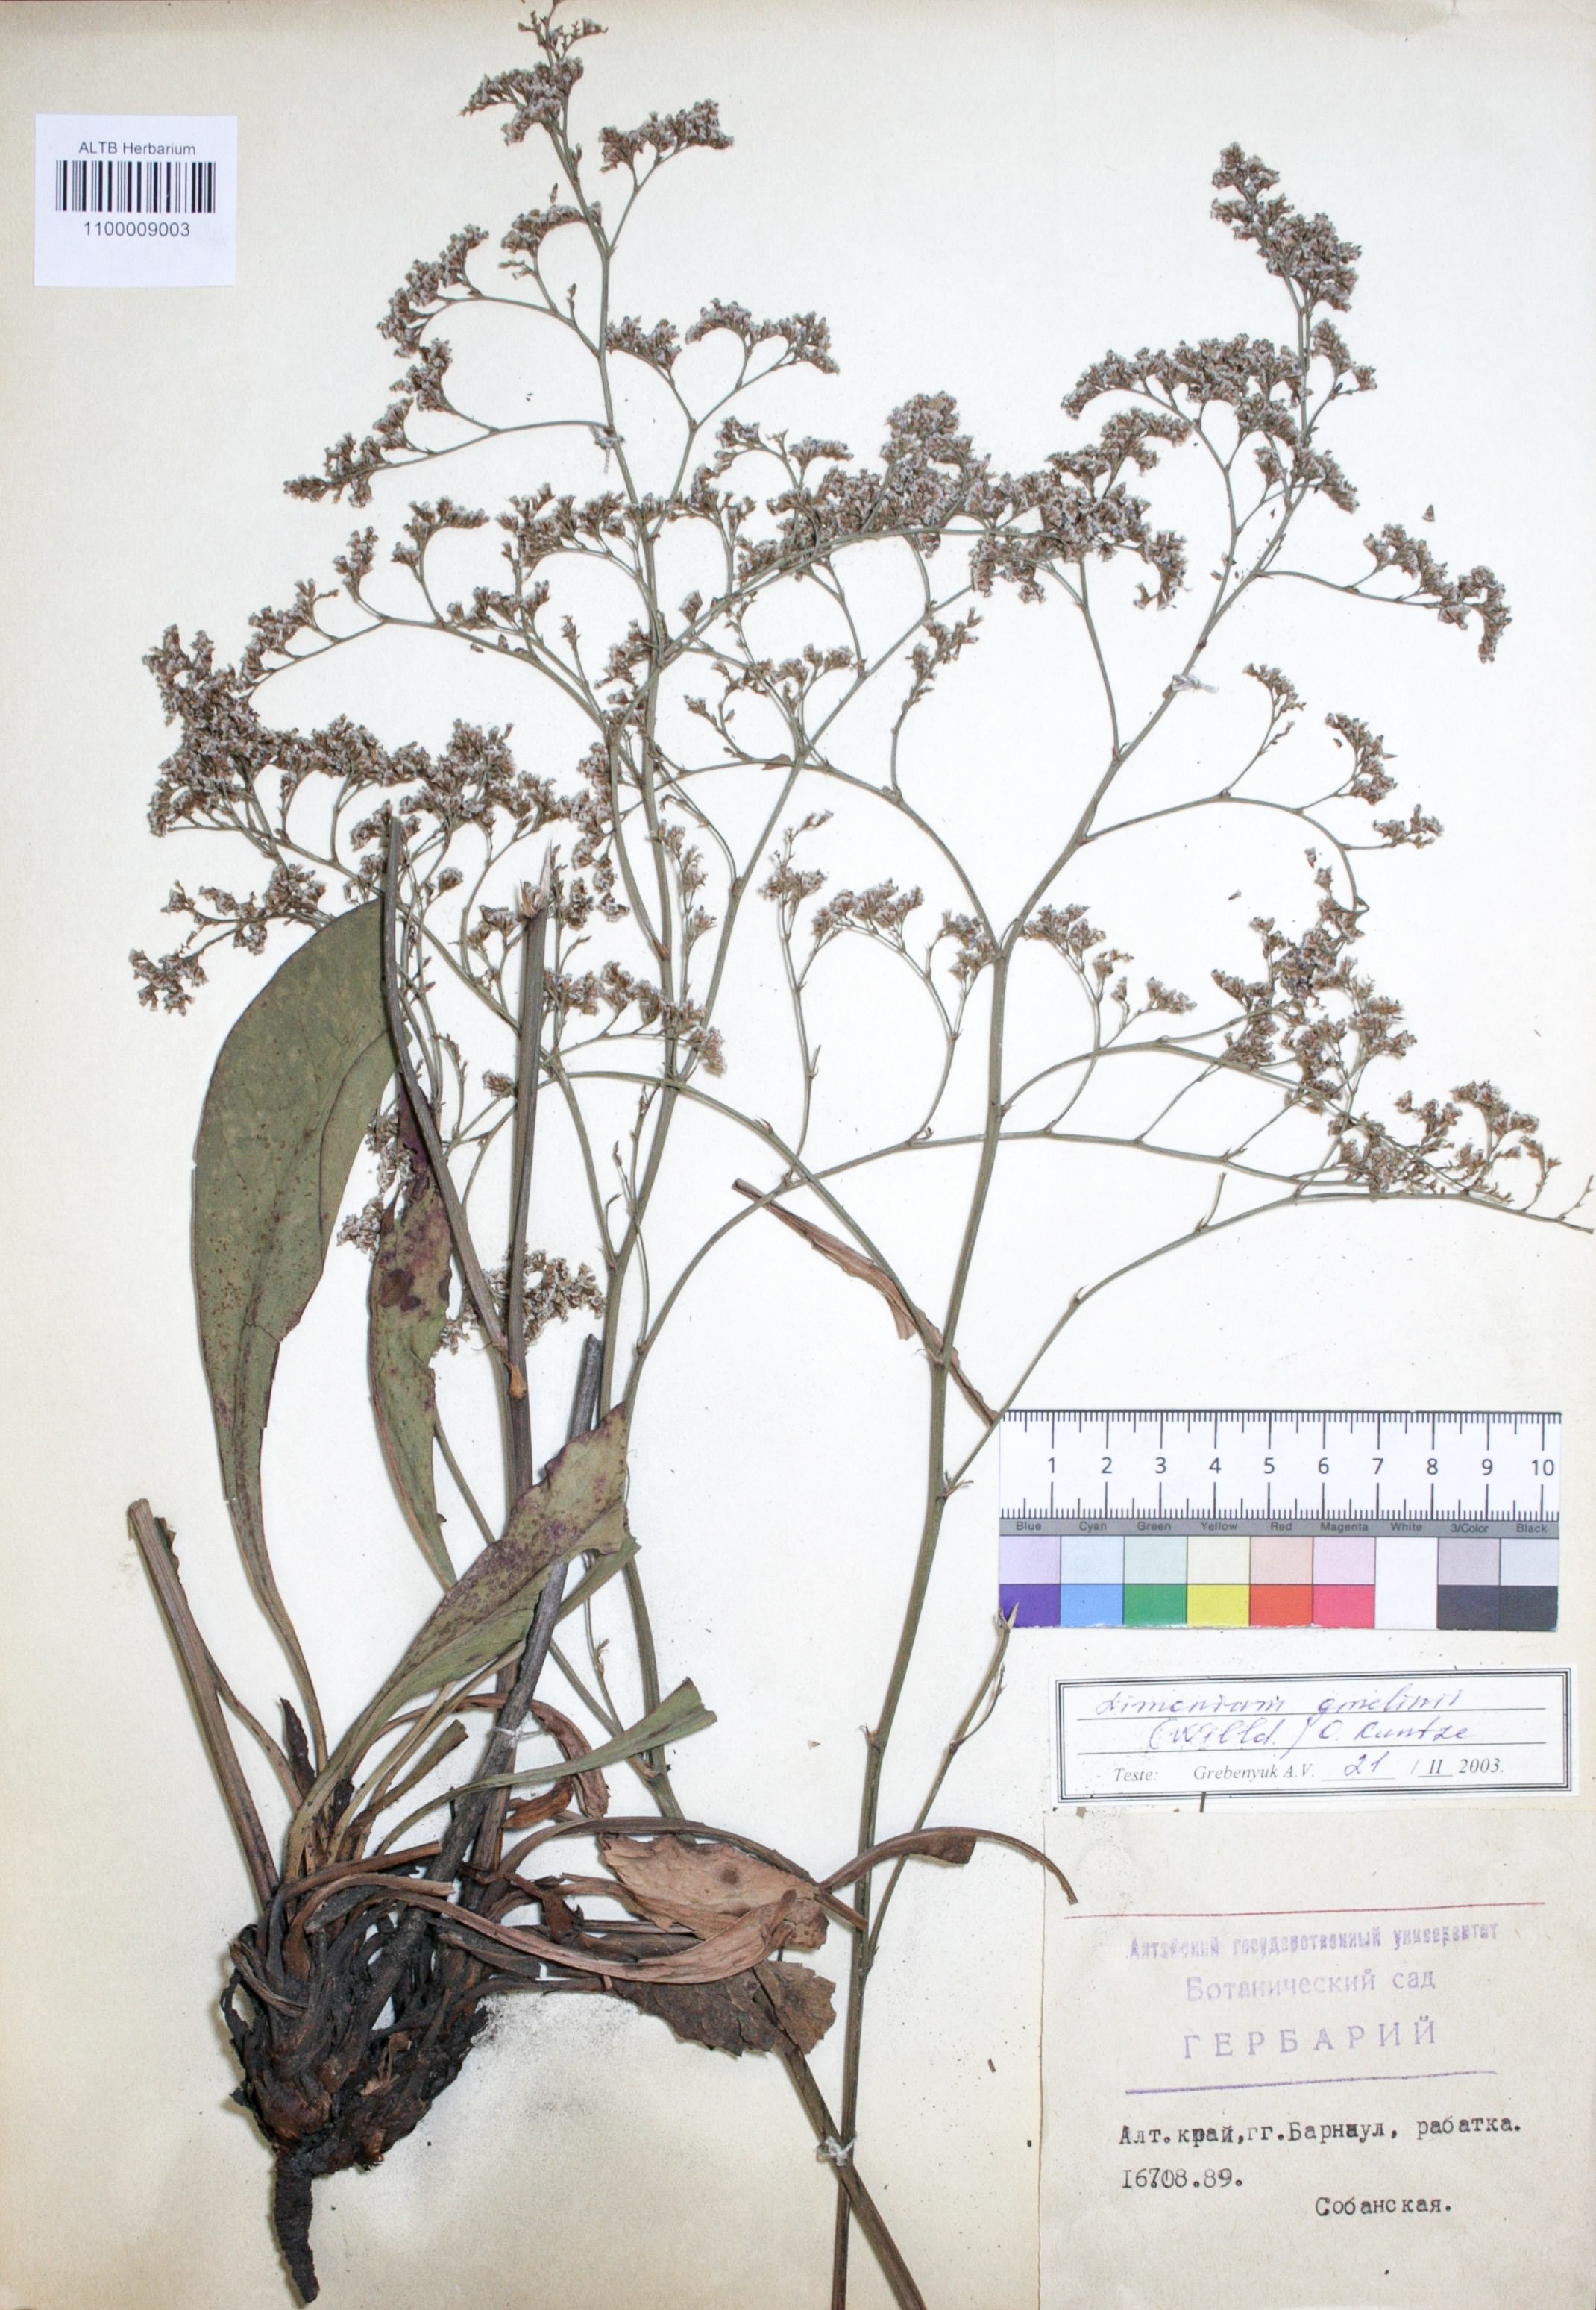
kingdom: Plantae
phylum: Tracheophyta
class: Magnoliopsida
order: Caryophyllales
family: Plumbaginaceae
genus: Limonium
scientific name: Limonium gmelini
